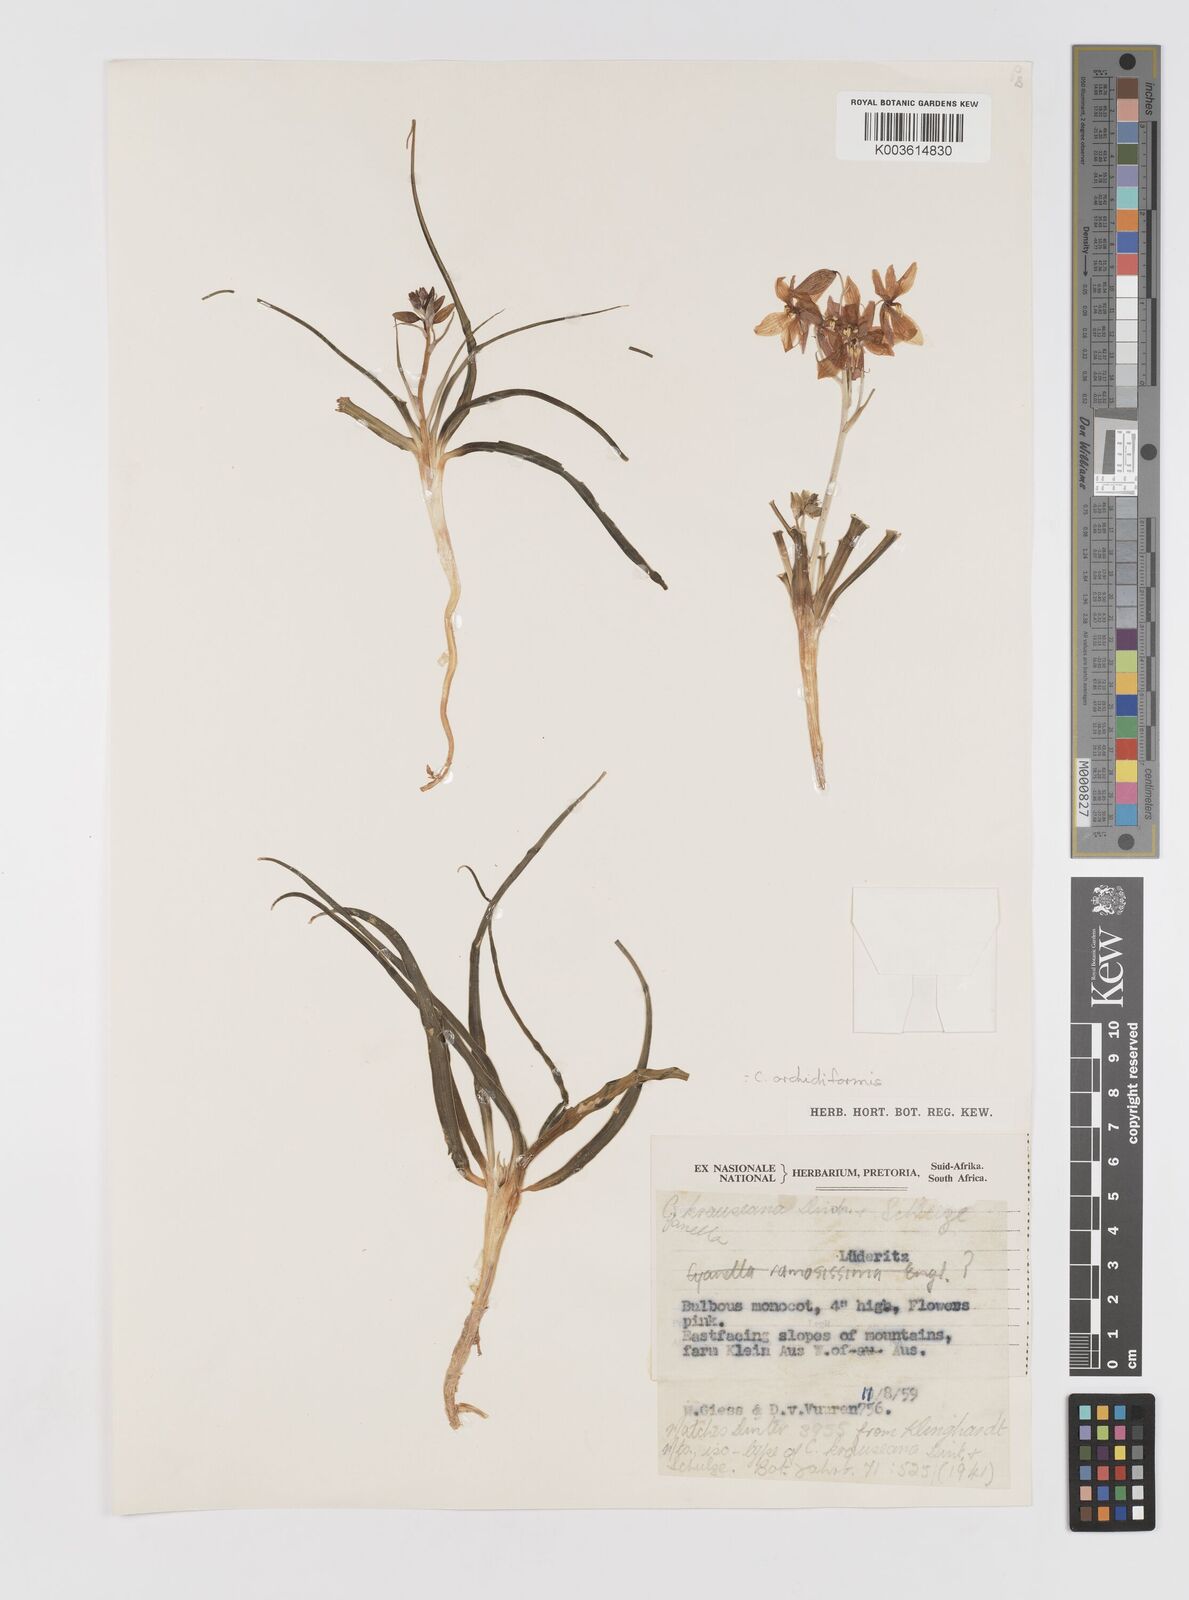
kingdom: Plantae
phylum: Tracheophyta
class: Liliopsida
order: Asparagales
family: Tecophilaeaceae
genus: Cyanella
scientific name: Cyanella ramosissima
